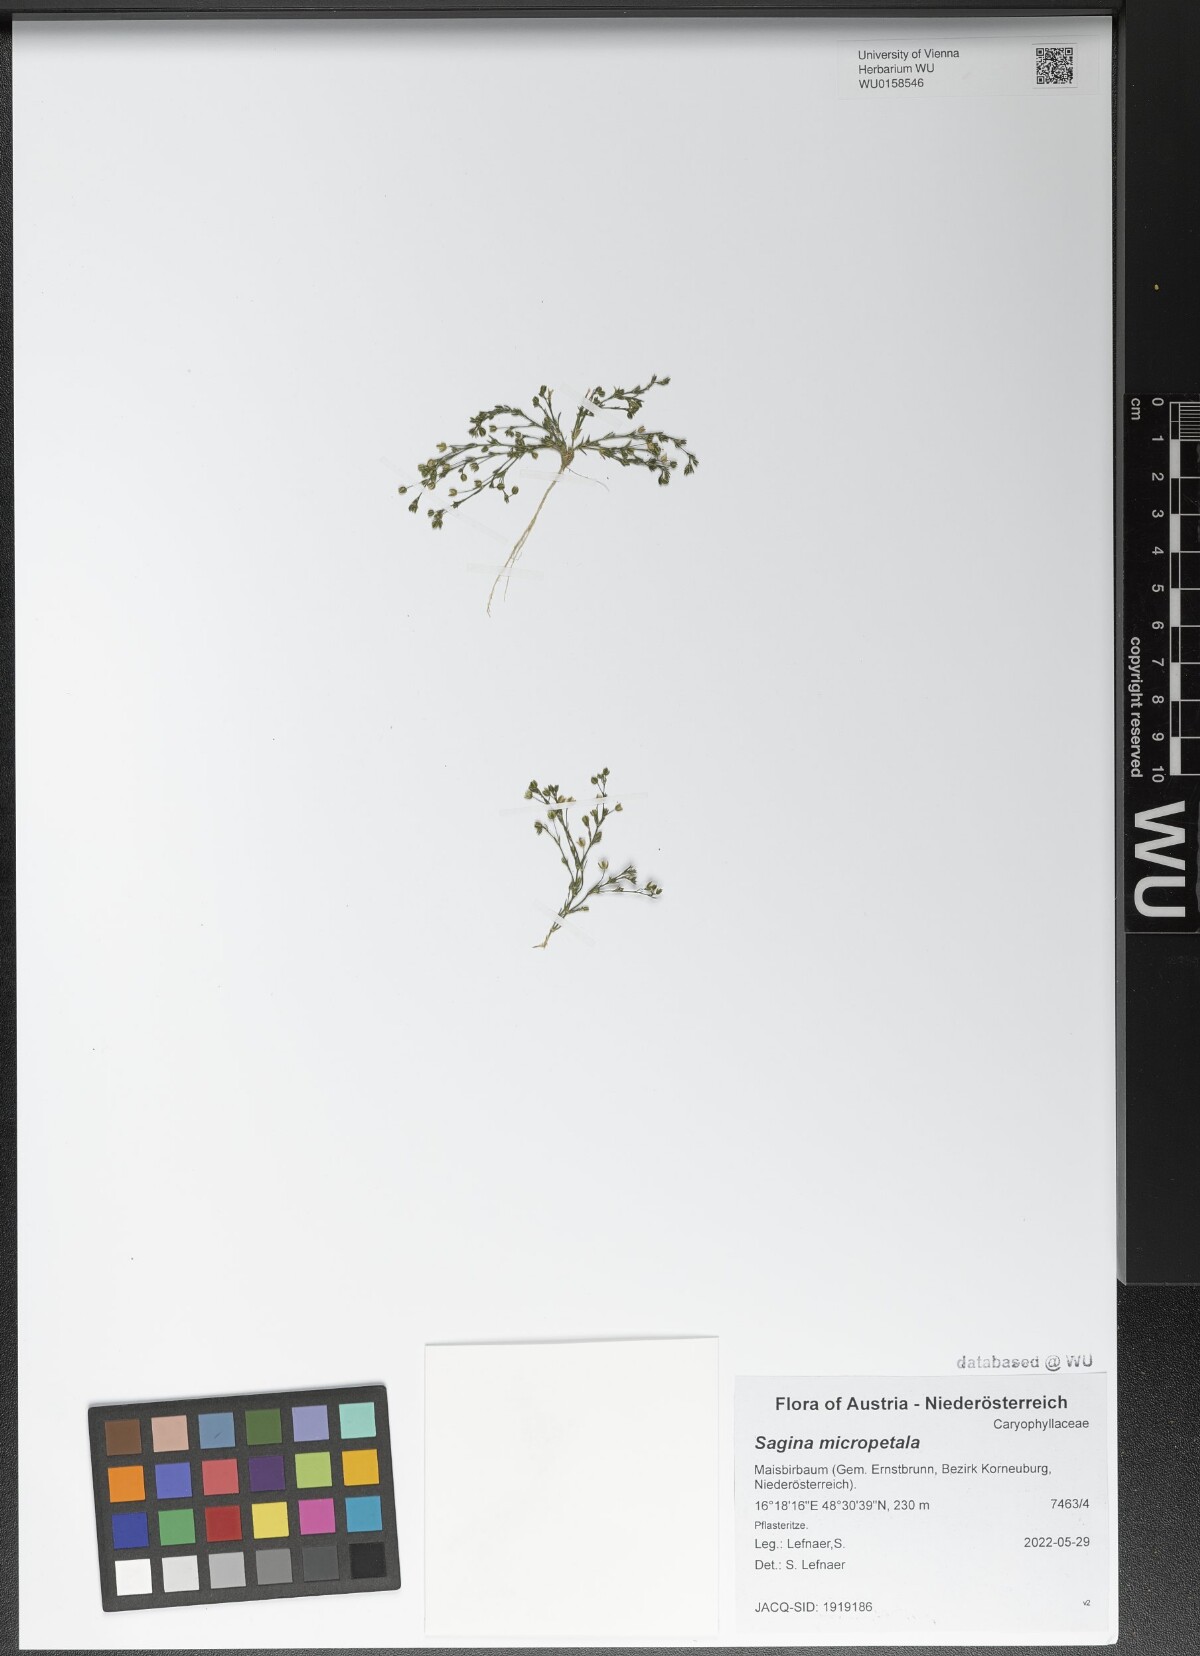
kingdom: Plantae
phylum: Tracheophyta
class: Magnoliopsida
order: Caryophyllales
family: Caryophyllaceae
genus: Sagina
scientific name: Sagina micropetala
